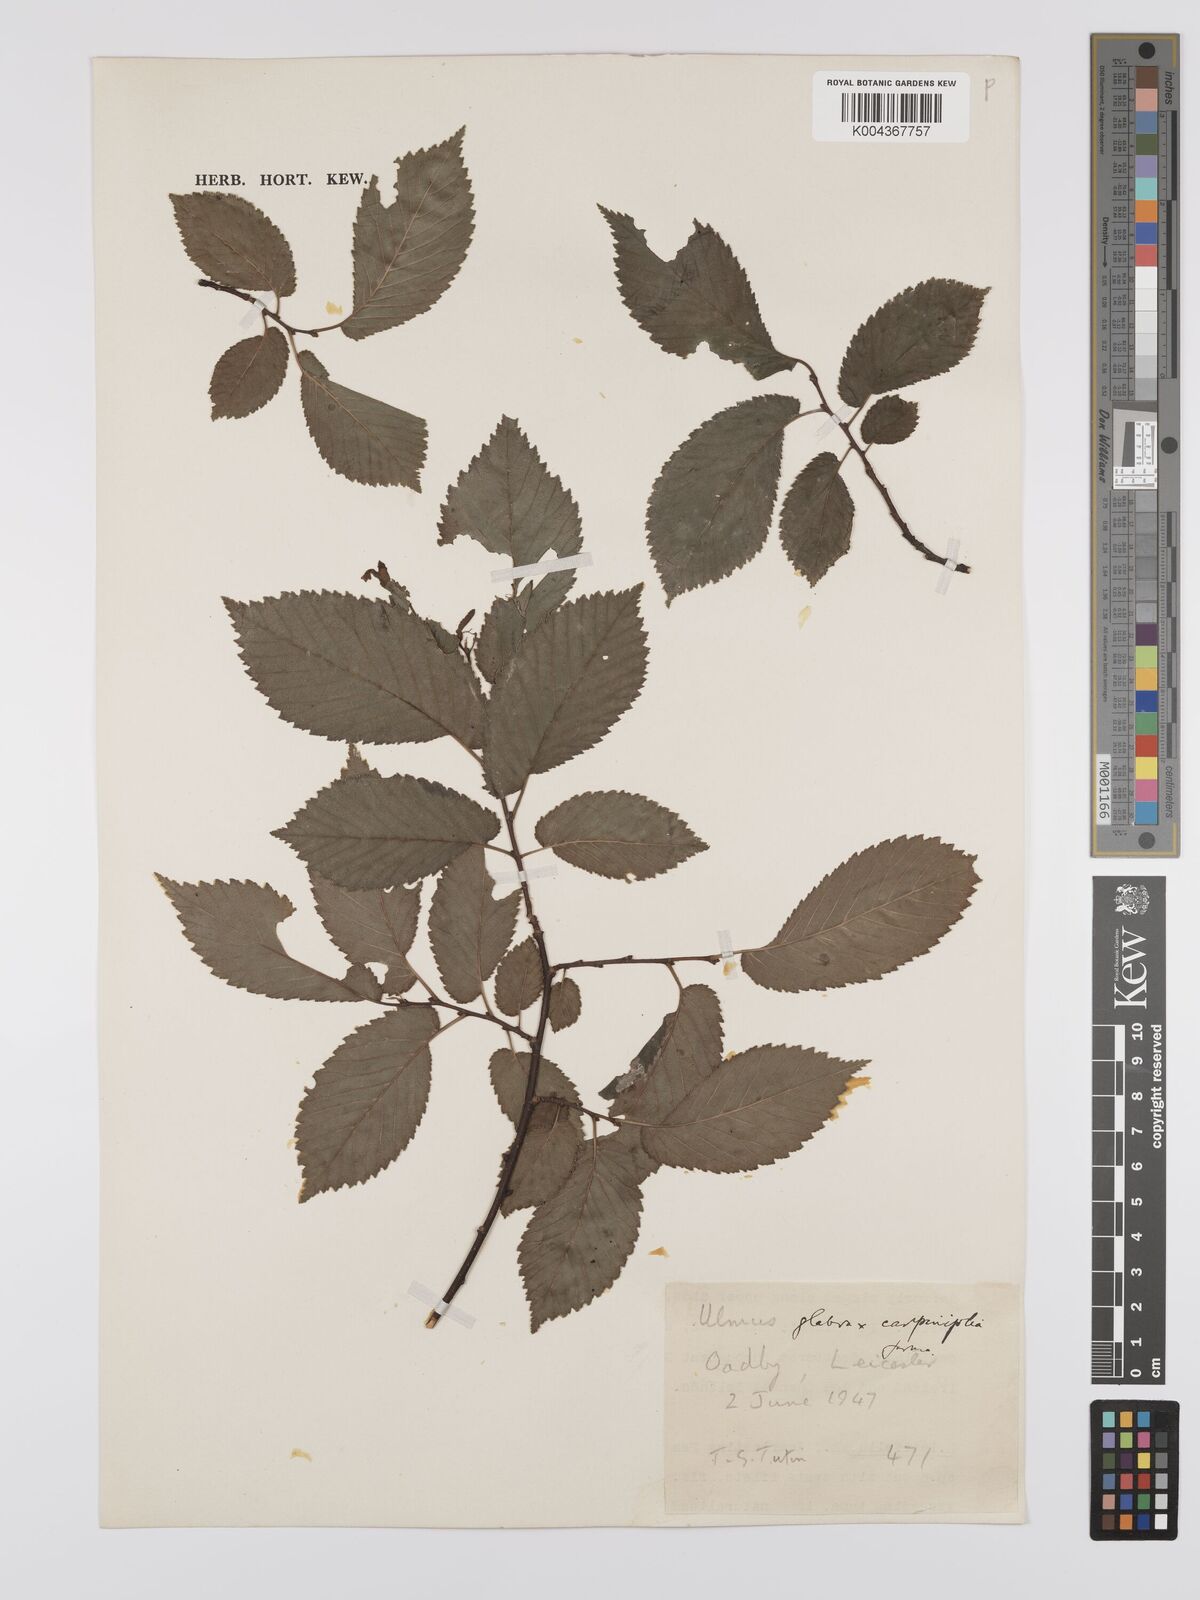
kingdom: Plantae
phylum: Tracheophyta
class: Magnoliopsida
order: Rosales
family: Ulmaceae
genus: Ulmus
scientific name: Ulmus
